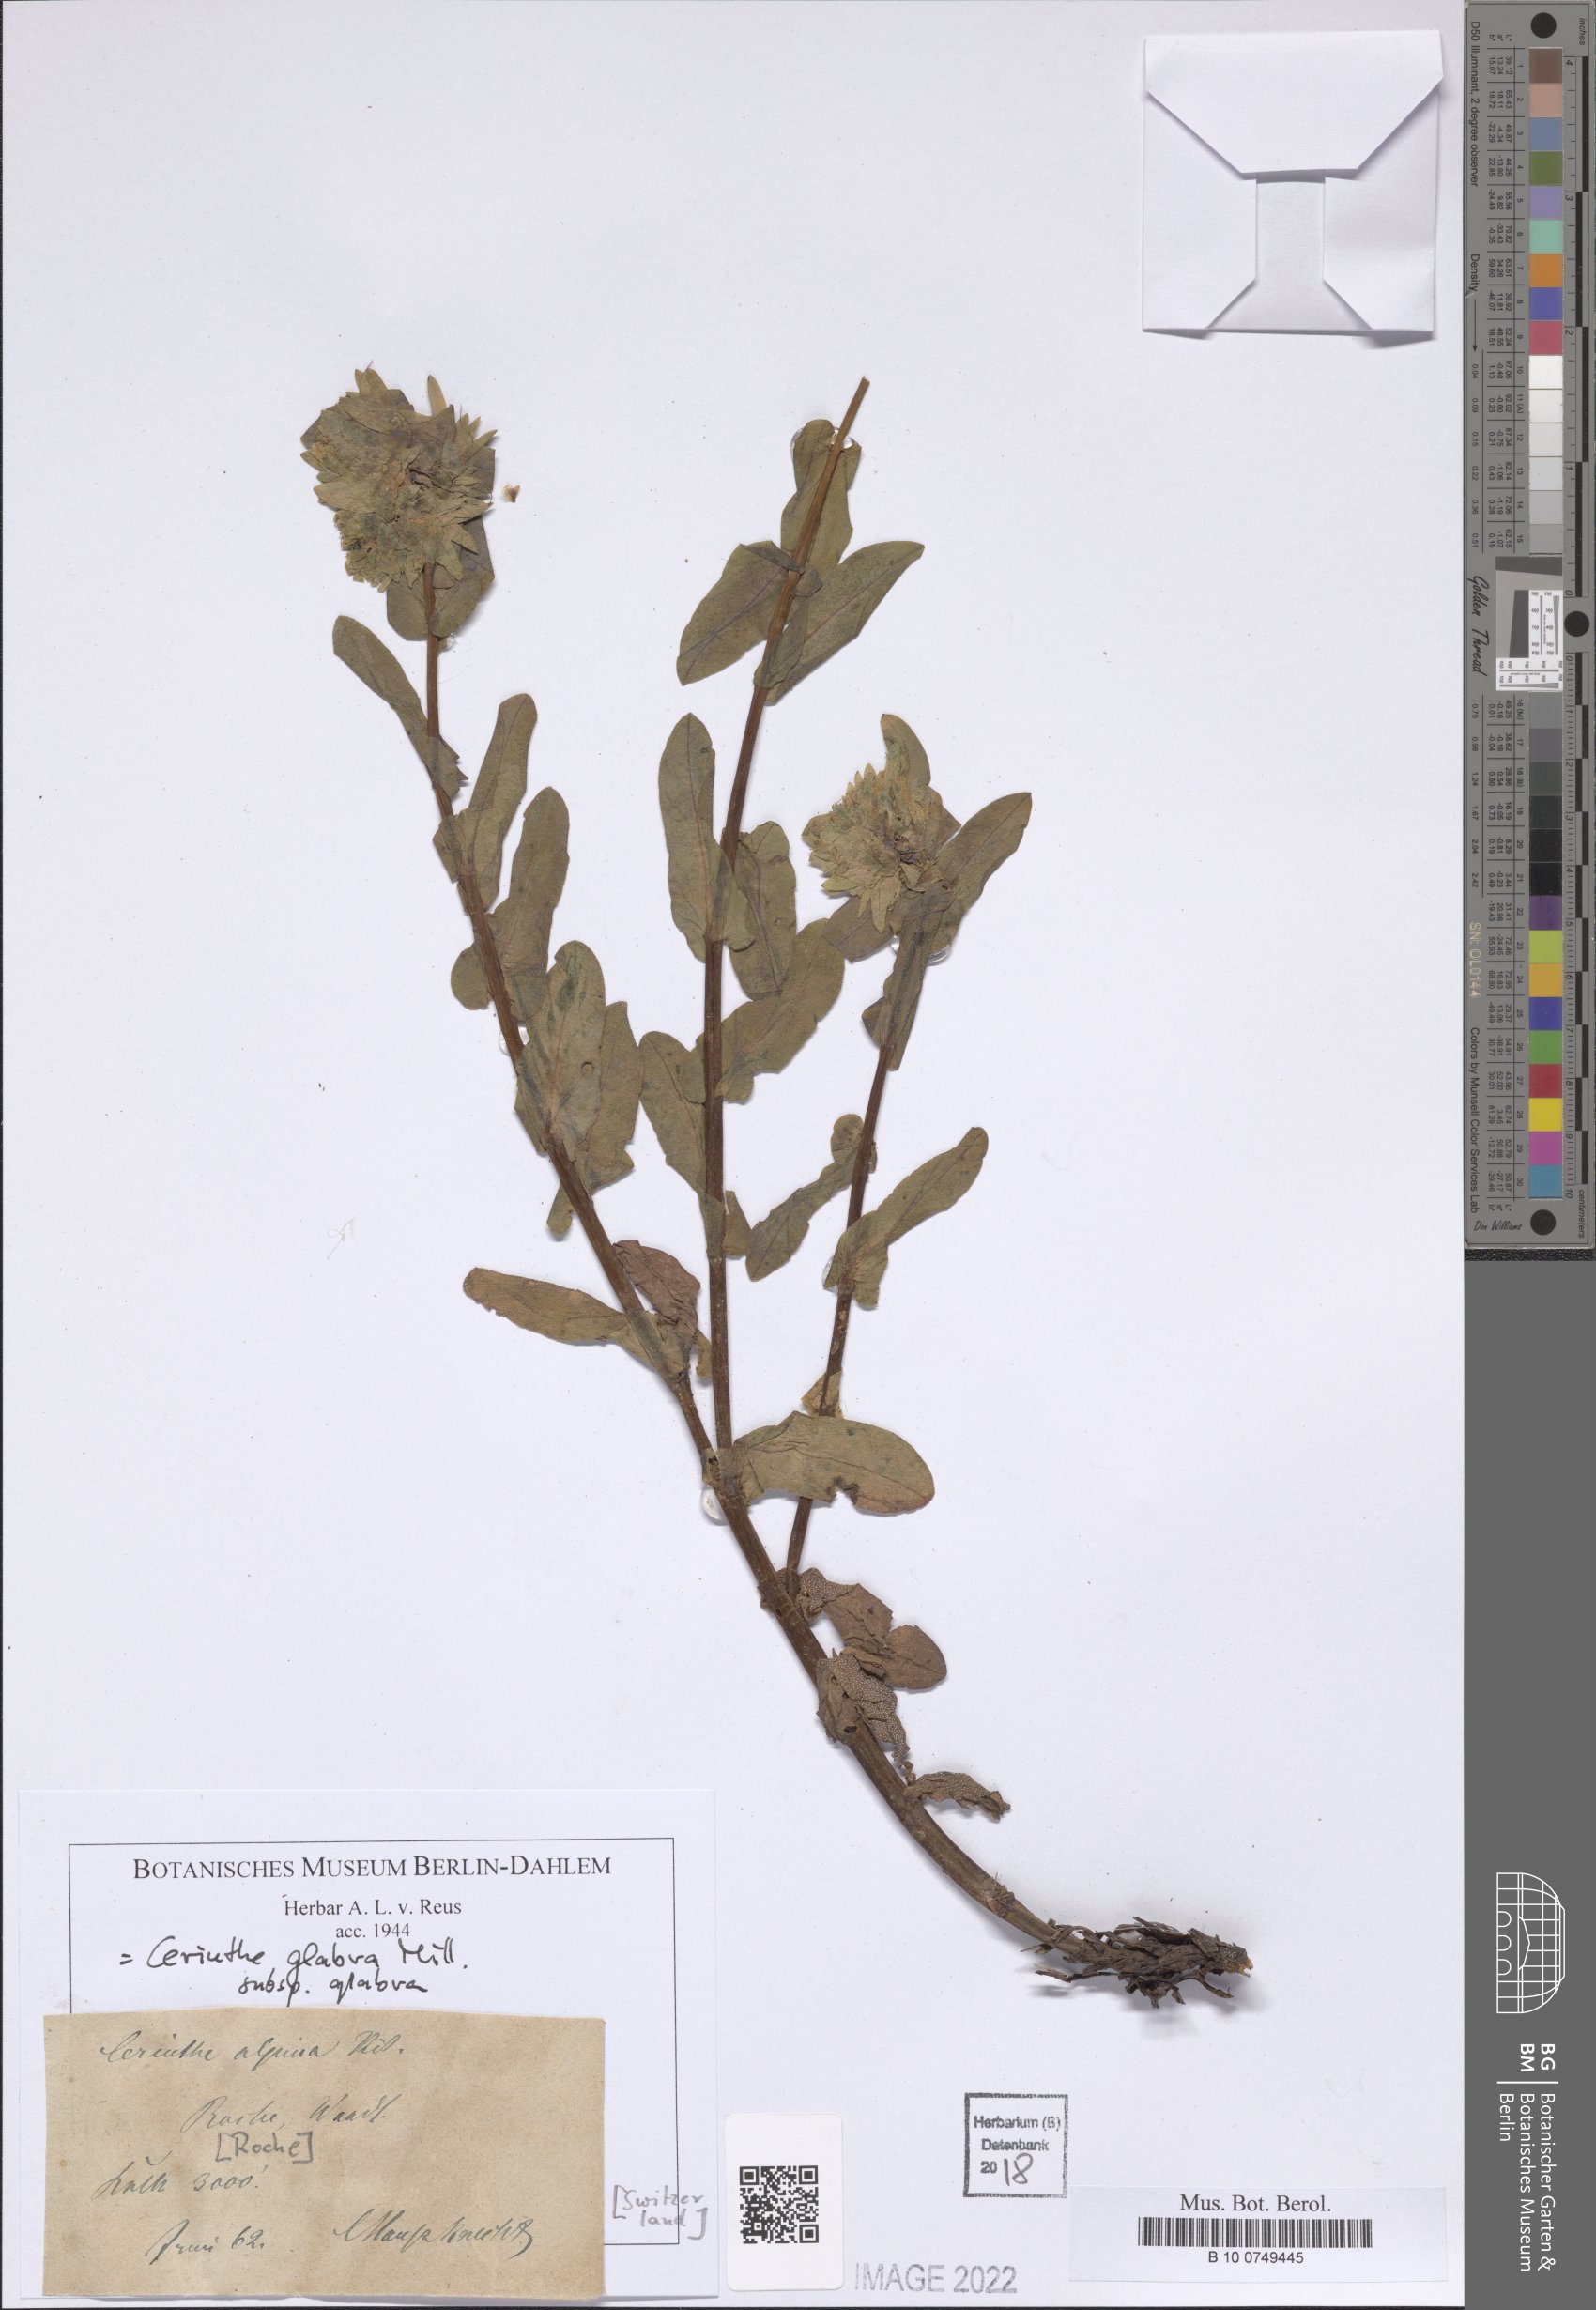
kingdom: Plantae
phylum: Tracheophyta
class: Magnoliopsida
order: Boraginales
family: Boraginaceae
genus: Cerinthe
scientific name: Cerinthe glabra
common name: Smooth honeywort
